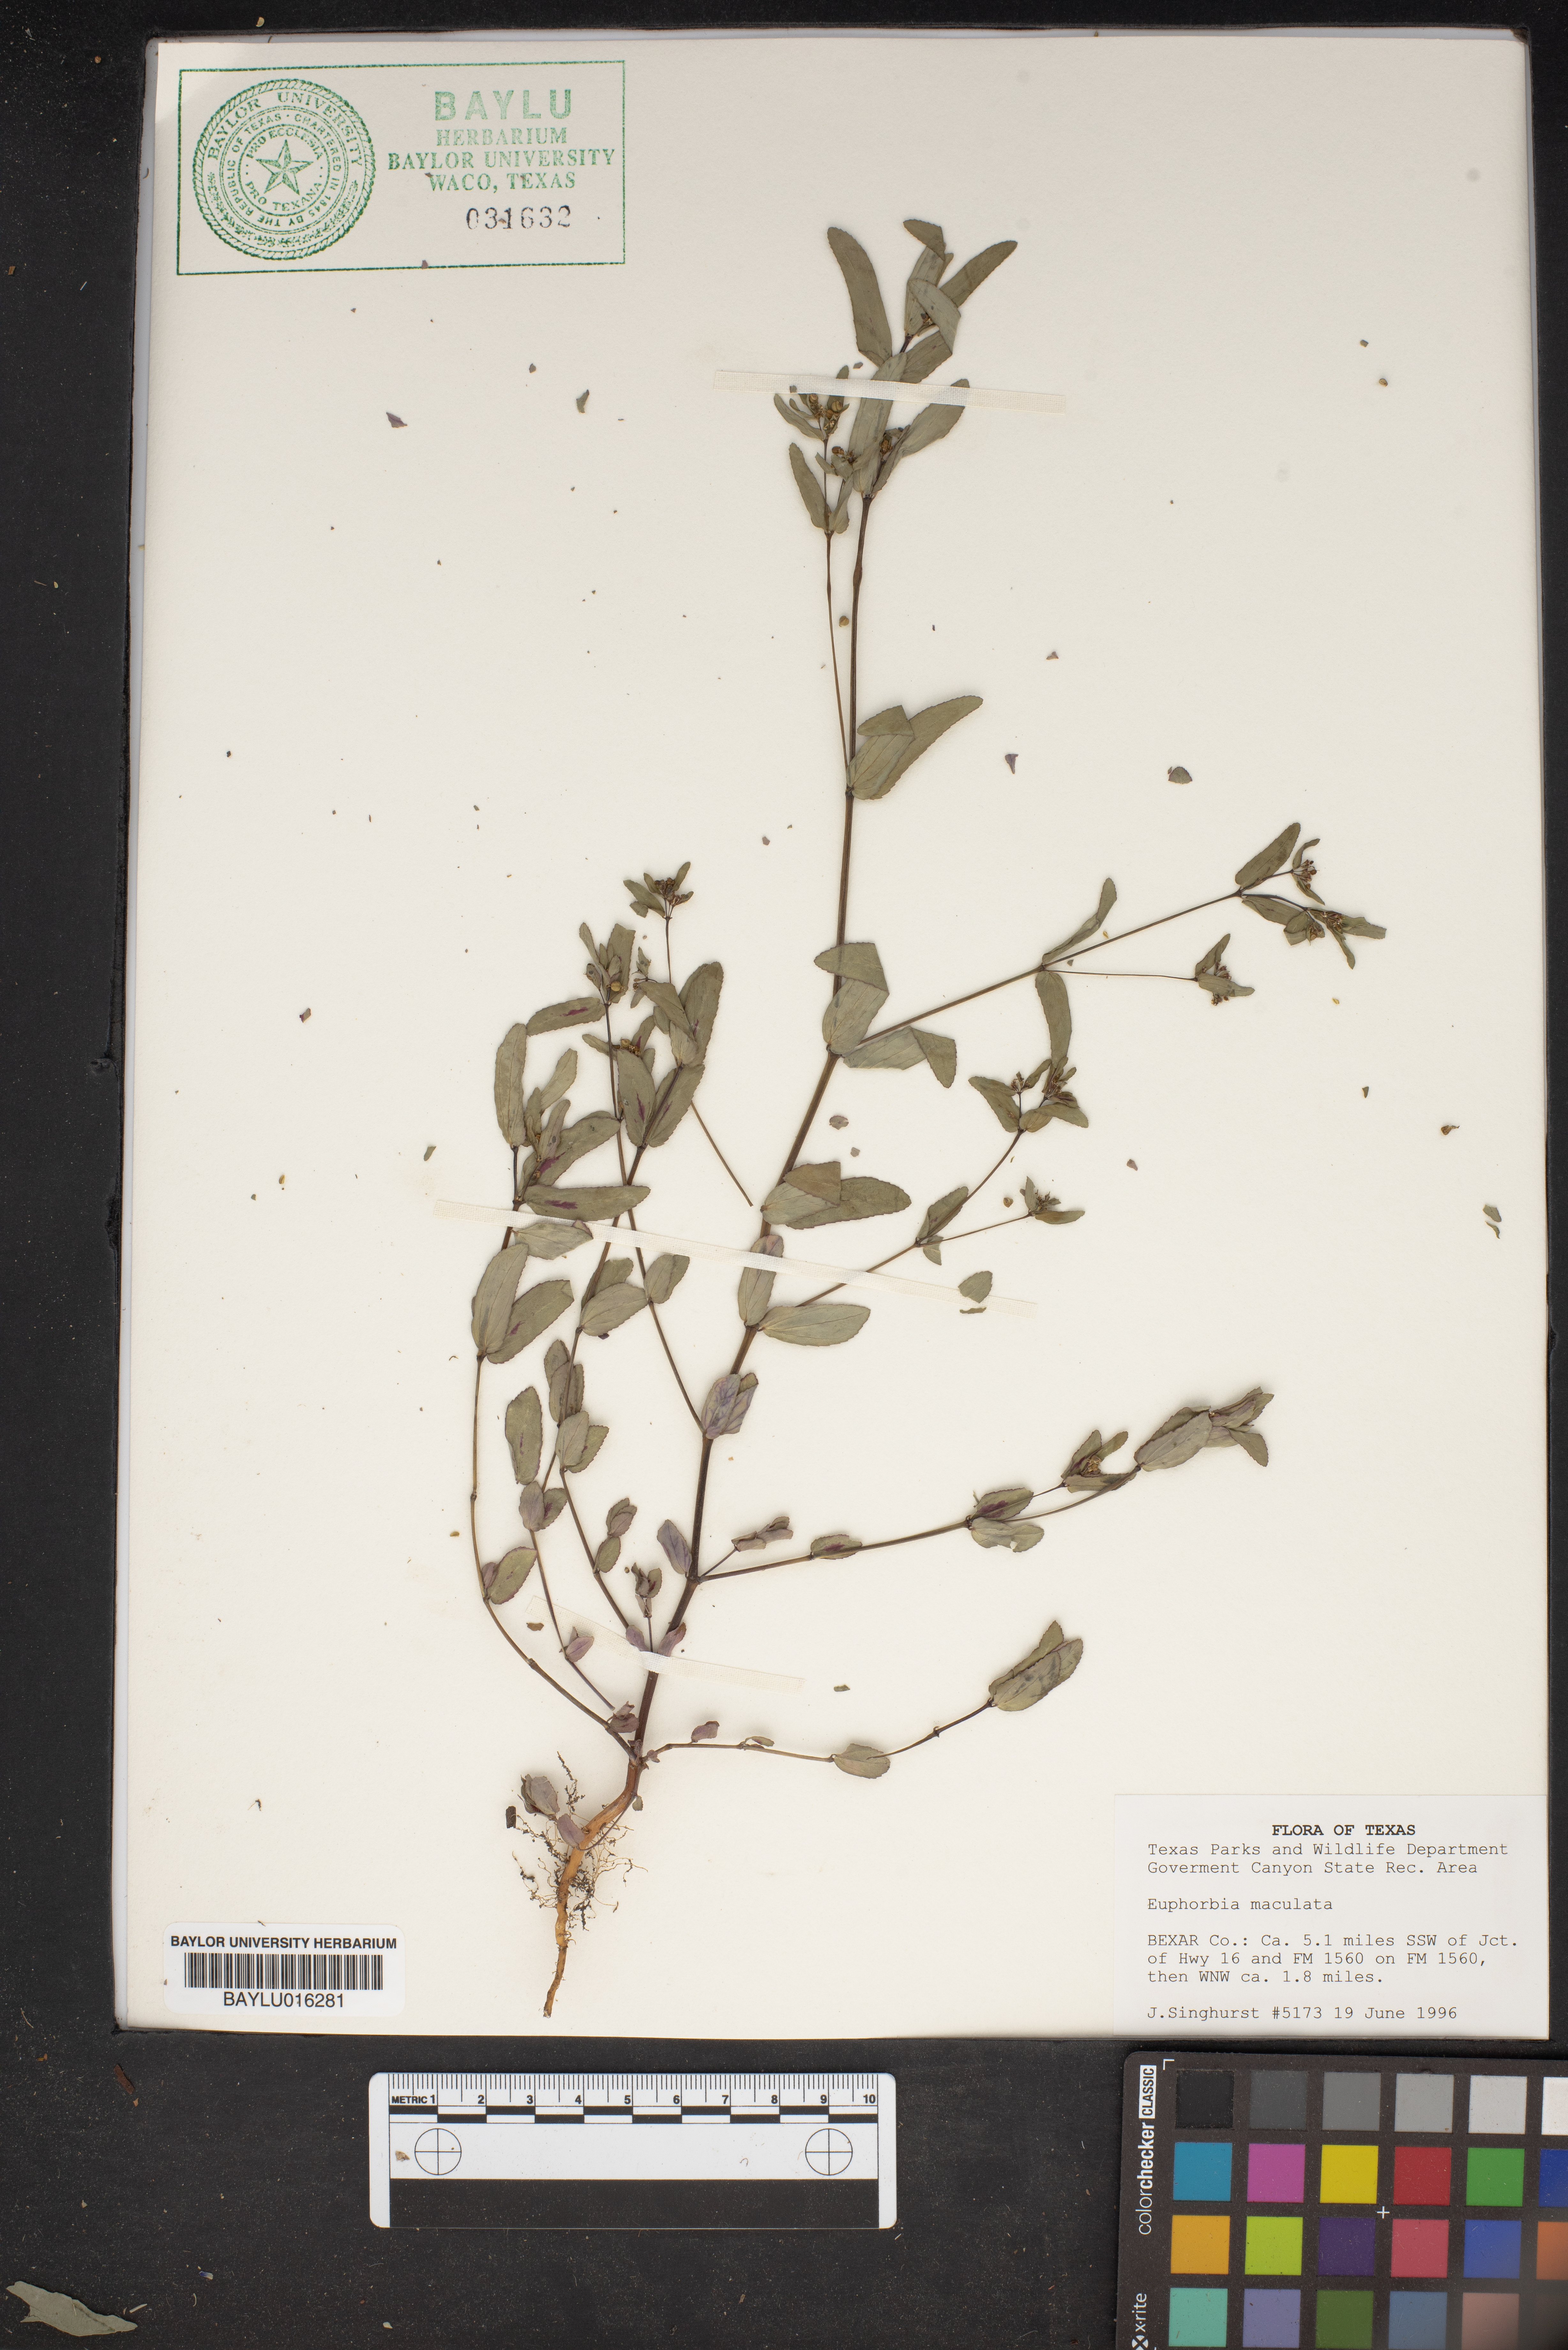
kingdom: Plantae
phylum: Tracheophyta
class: Magnoliopsida
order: Malpighiales
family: Euphorbiaceae
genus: Euphorbia
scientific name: Euphorbia maculata
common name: Spotted spurge
